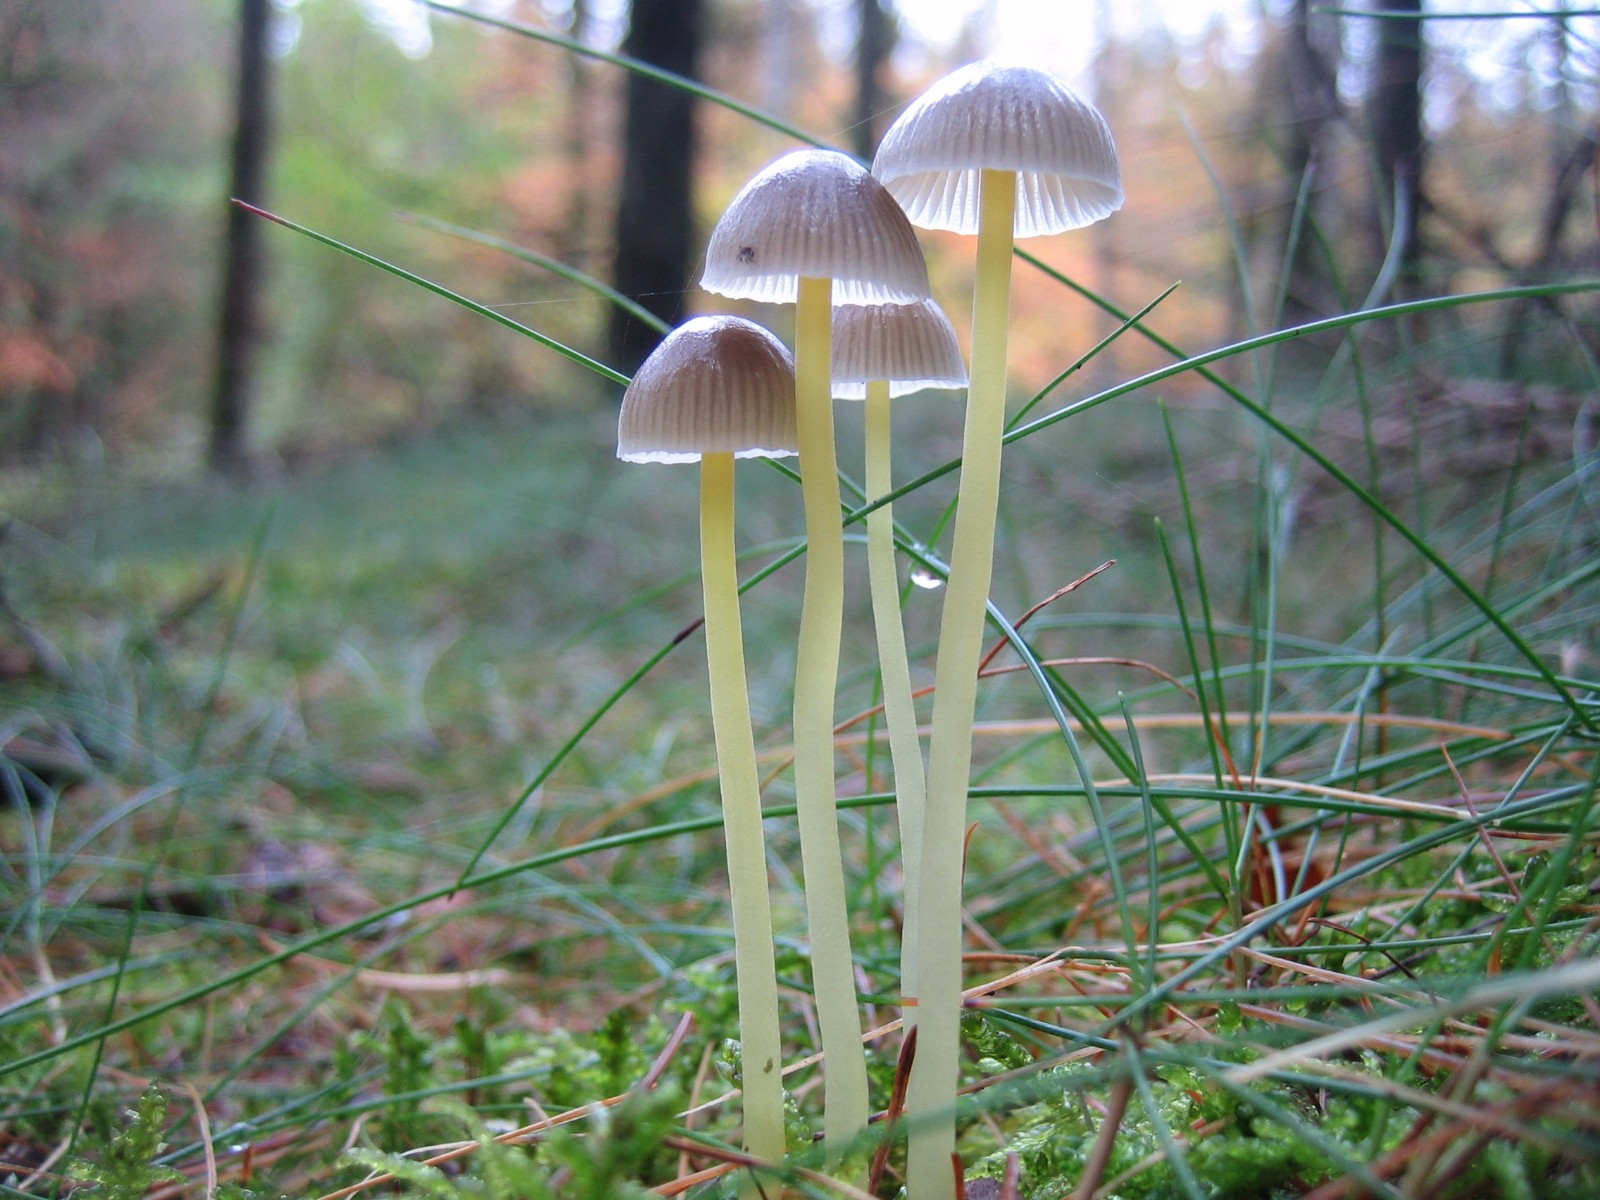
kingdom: Fungi
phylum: Basidiomycota
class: Agaricomycetes
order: Agaricales
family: Mycenaceae
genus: Mycena
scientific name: Mycena epipterygia
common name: gulstokket huesvamp
